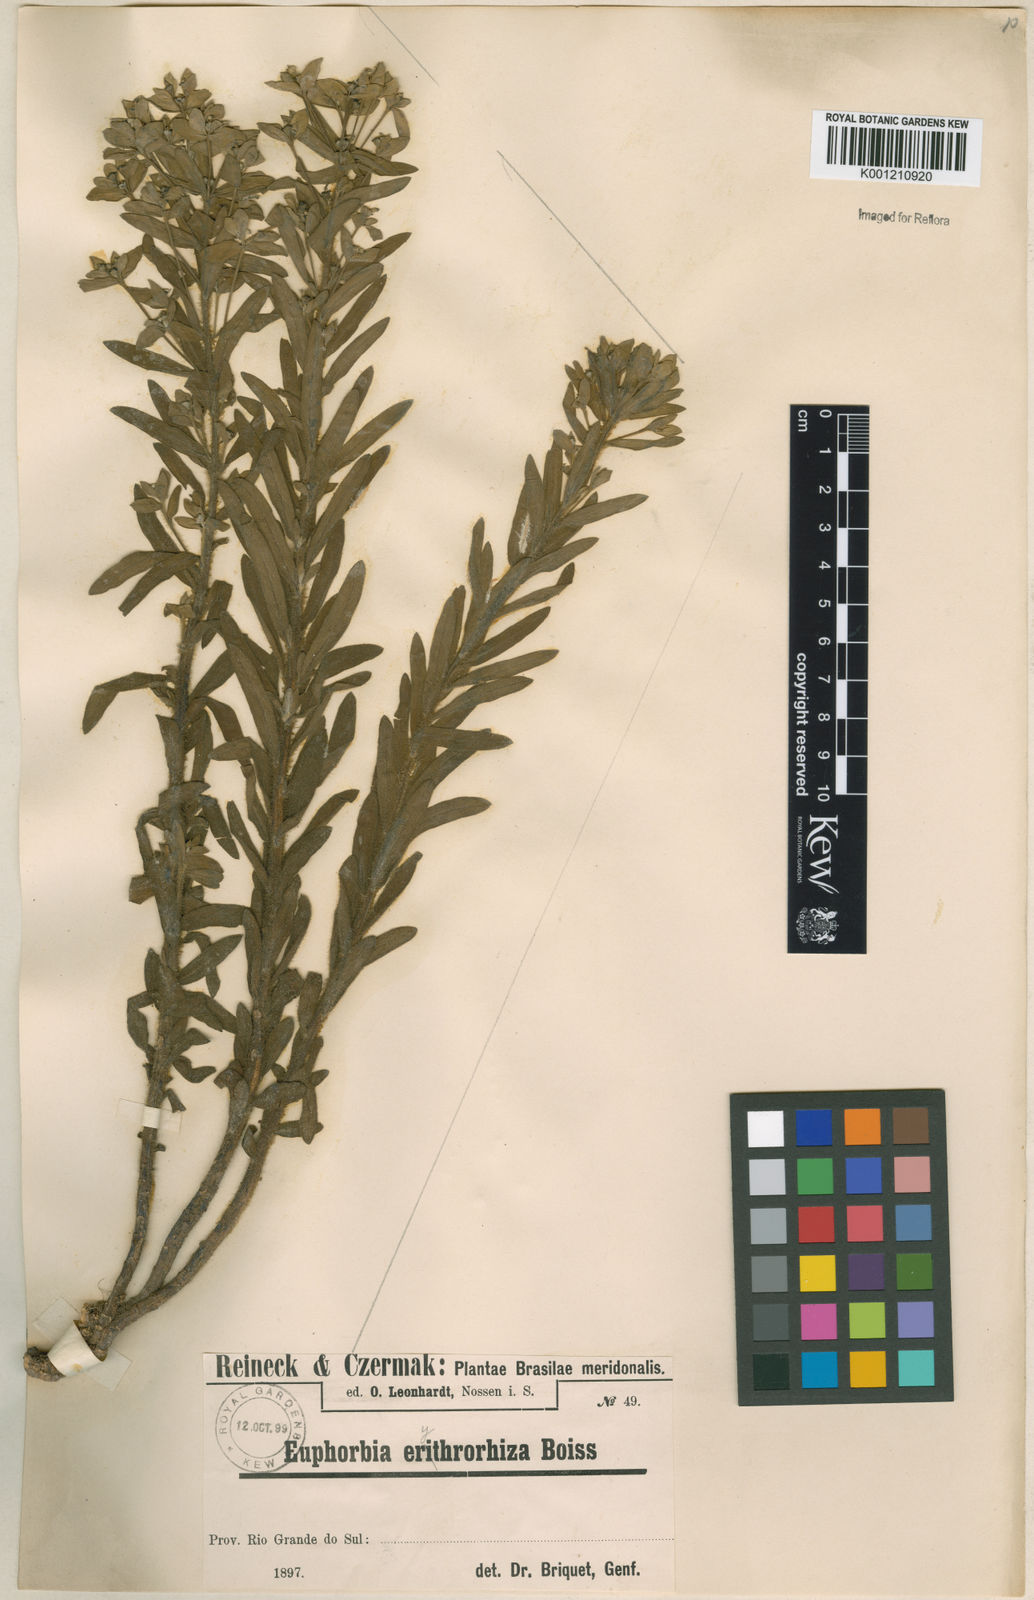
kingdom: Plantae
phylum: Tracheophyta
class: Magnoliopsida
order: Malpighiales
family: Euphorbiaceae
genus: Euphorbia
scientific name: Euphorbia papillosa
